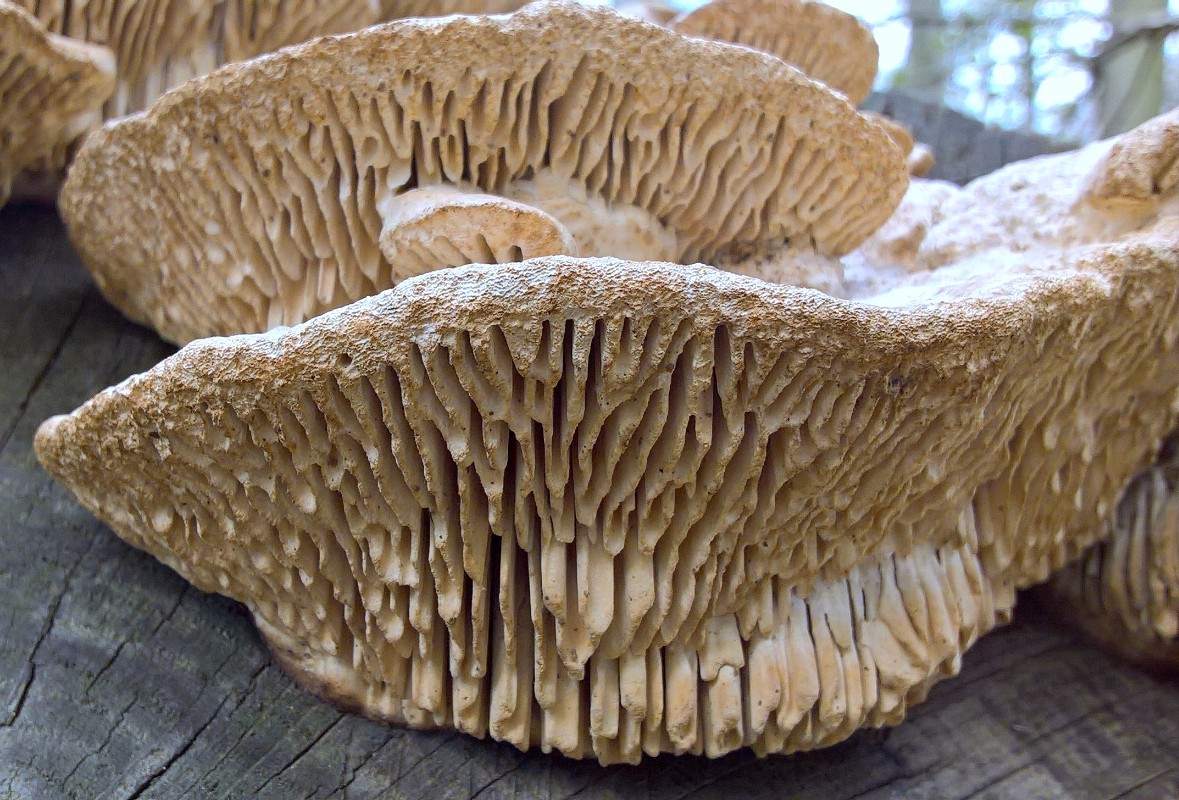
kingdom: Fungi
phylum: Basidiomycota
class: Agaricomycetes
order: Polyporales
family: Fomitopsidaceae
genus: Daedalea
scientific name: Daedalea quercina
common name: ege-labyrintsvamp
